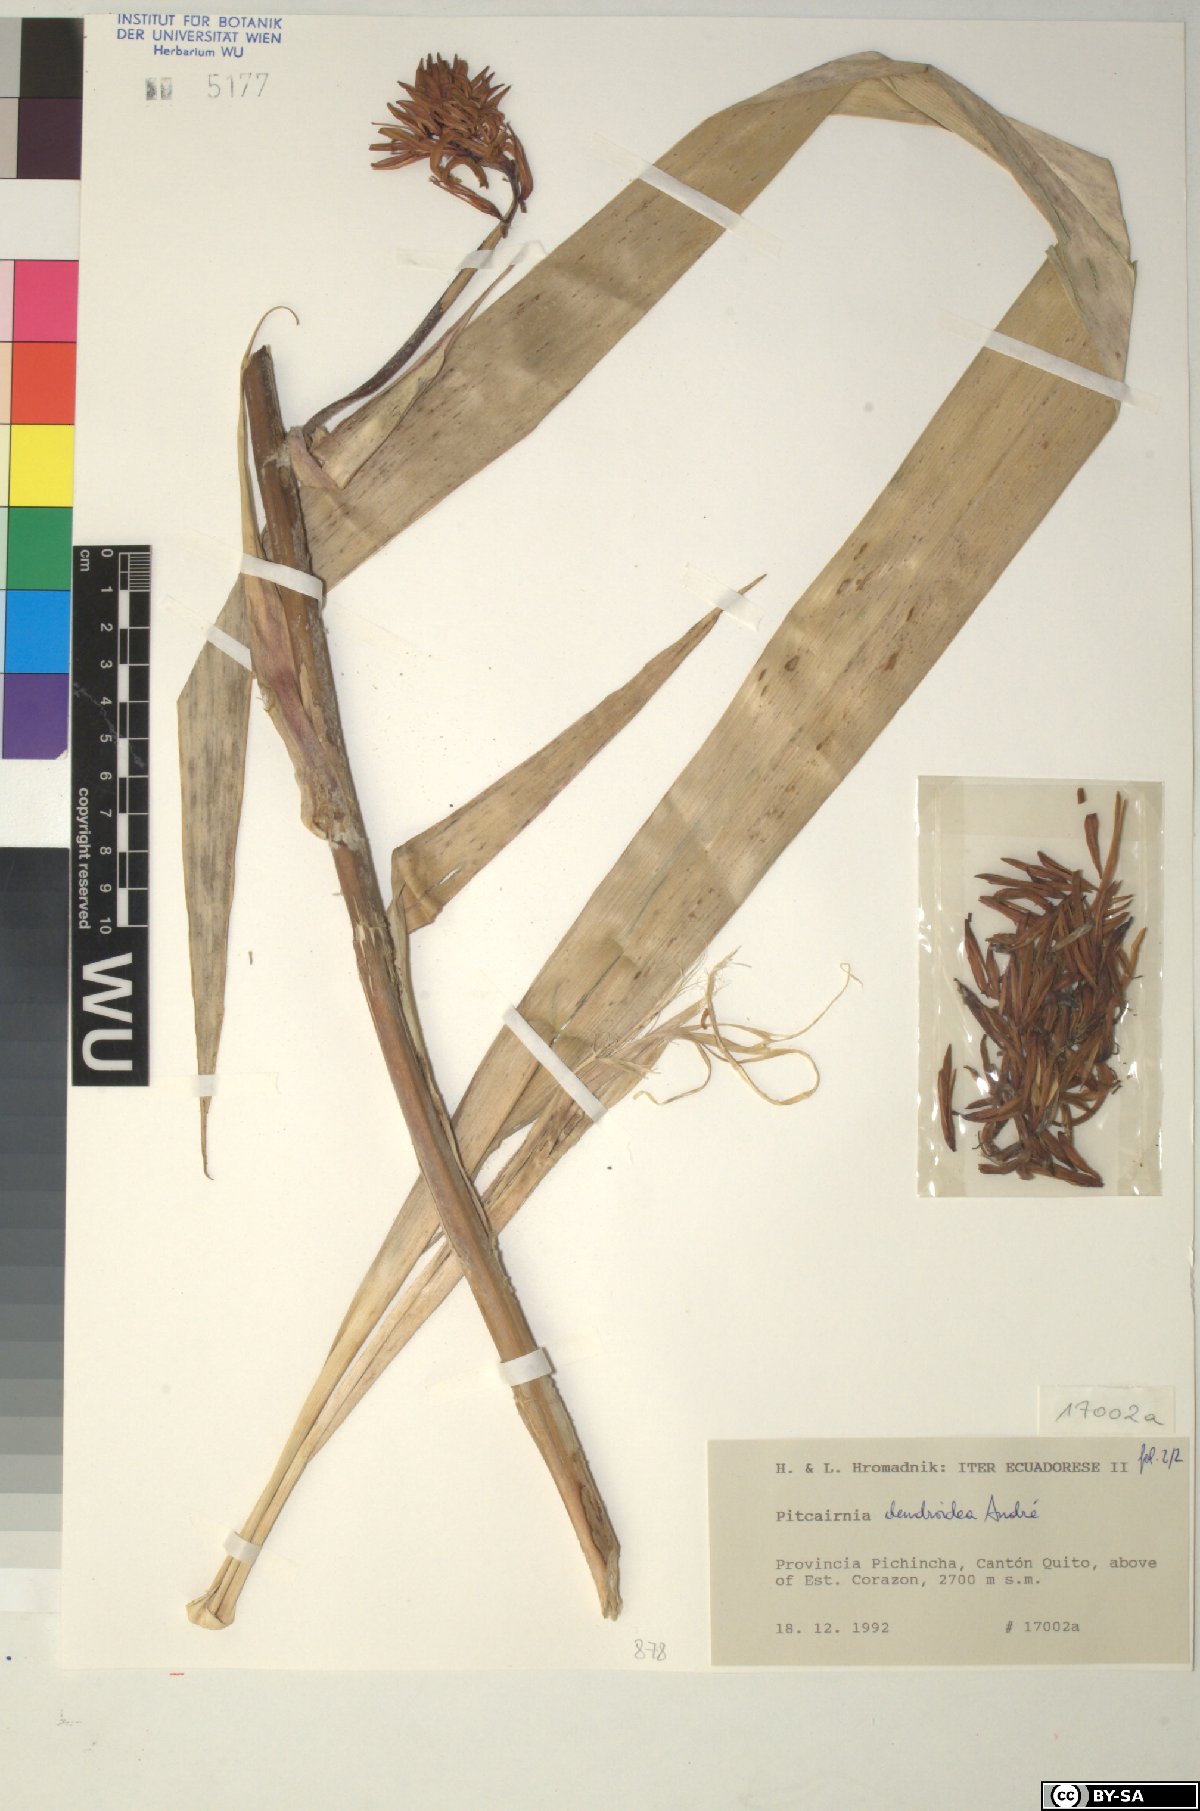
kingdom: Plantae
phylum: Tracheophyta
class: Liliopsida
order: Poales
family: Bromeliaceae
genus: Pitcairnia
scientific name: Pitcairnia dendroidea
